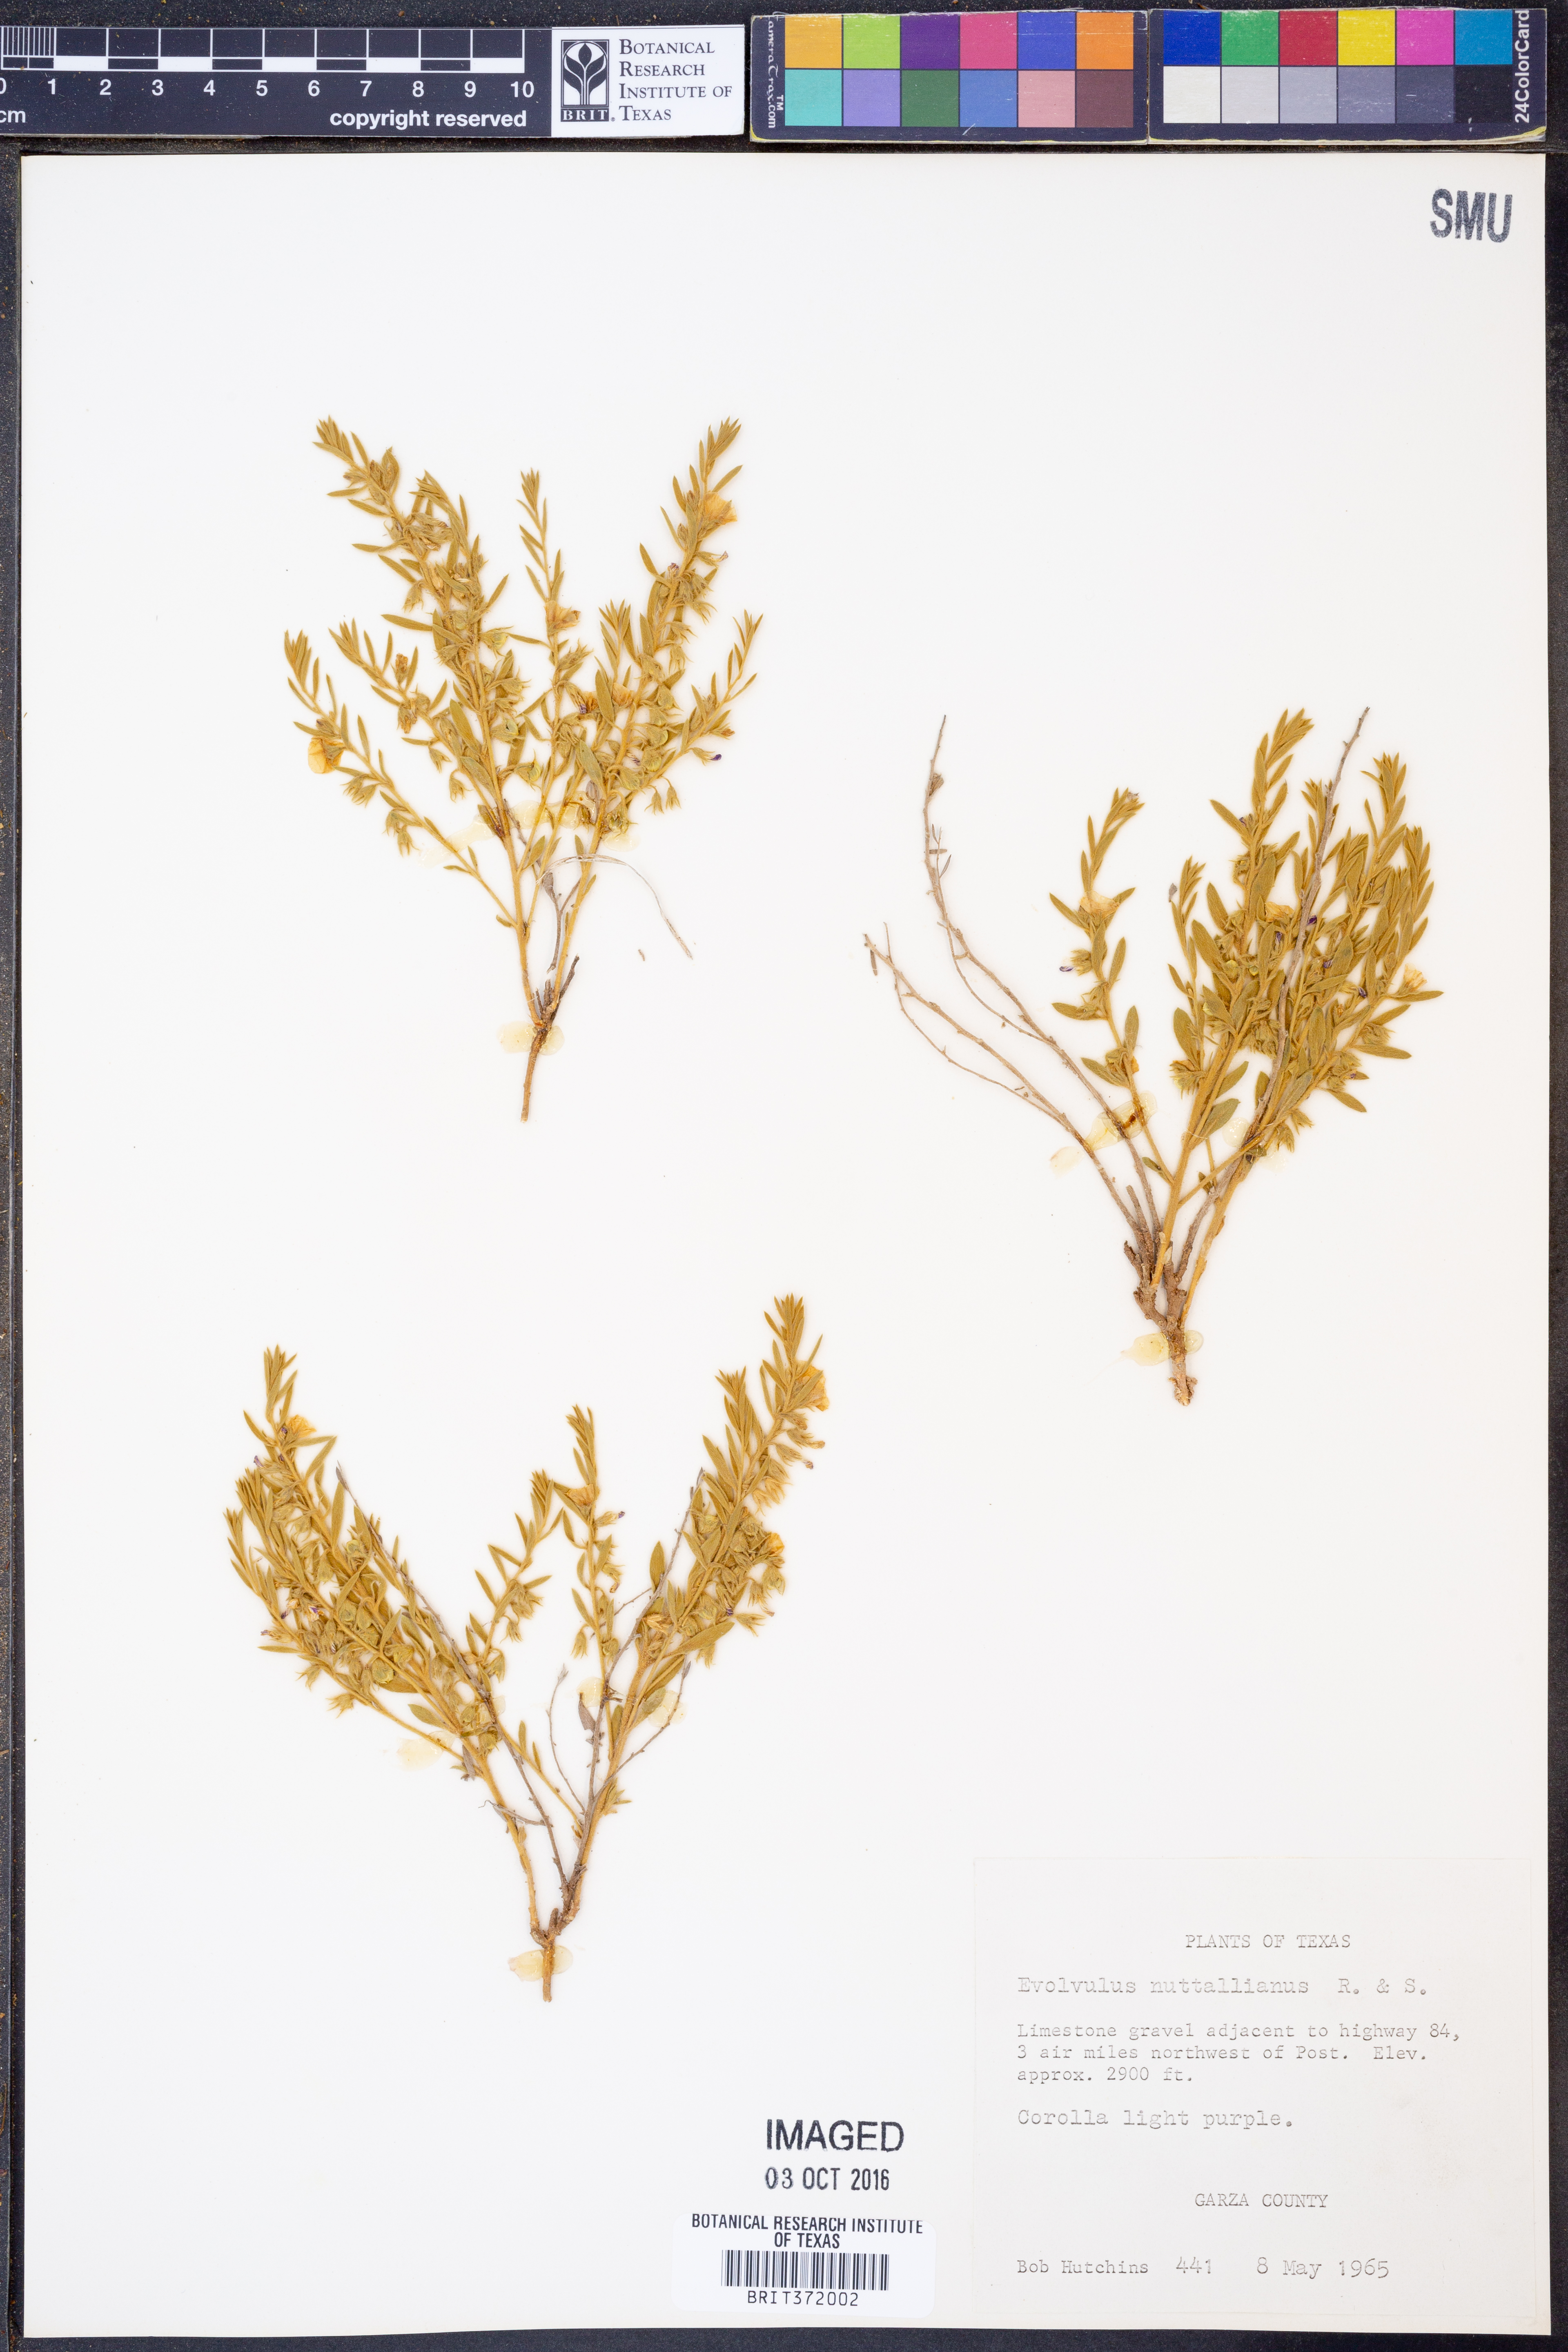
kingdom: Plantae
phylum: Tracheophyta
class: Magnoliopsida
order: Solanales
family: Convolvulaceae
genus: Evolvulus
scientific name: Evolvulus nuttallianus
